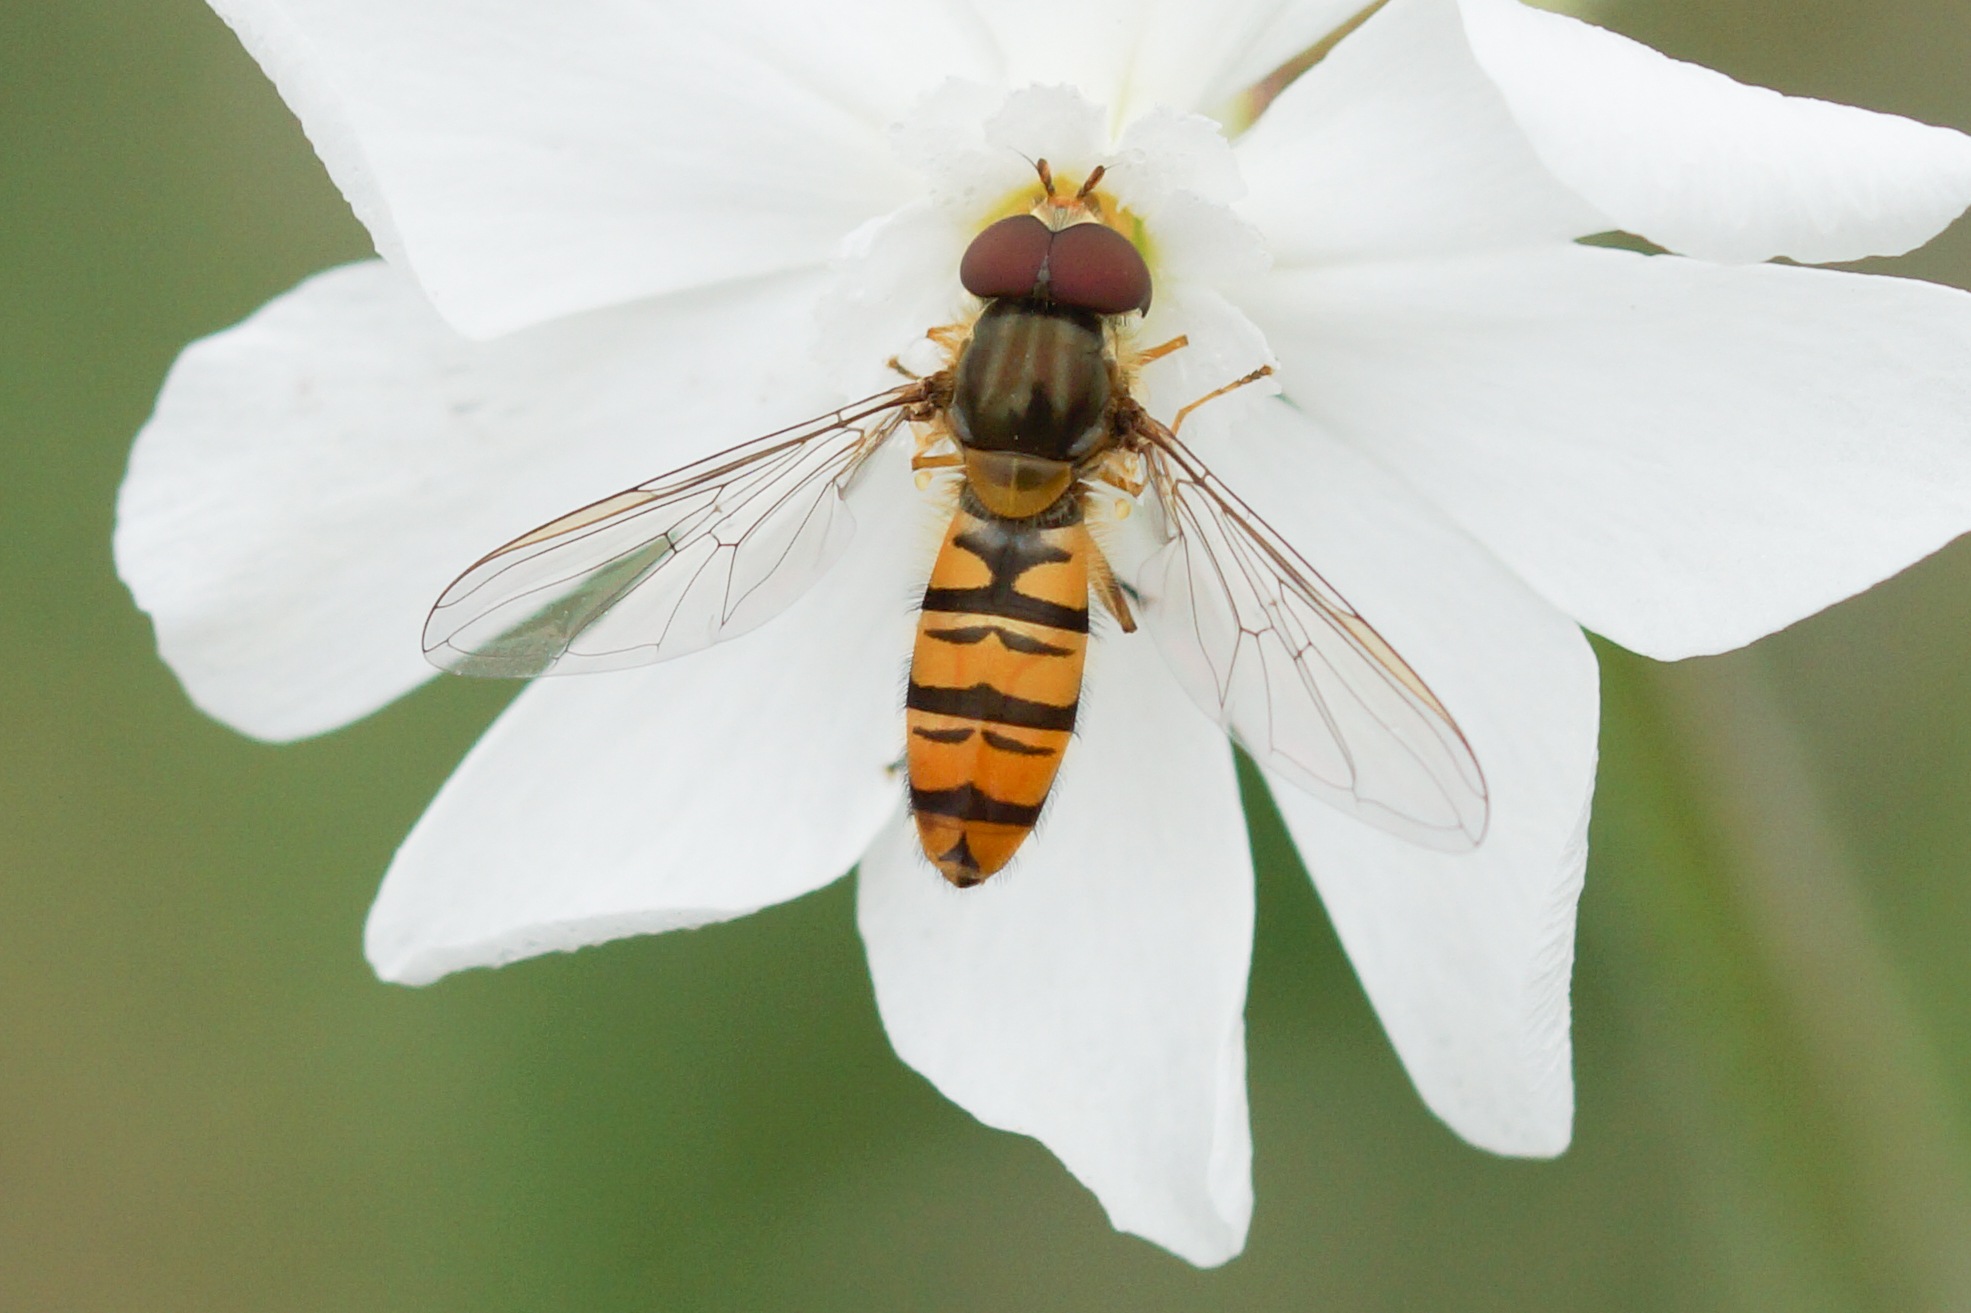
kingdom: Animalia
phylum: Arthropoda
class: Insecta
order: Diptera
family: Syrphidae
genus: Episyrphus
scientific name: Episyrphus balteatus
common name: Dobbeltbåndet svirreflue
